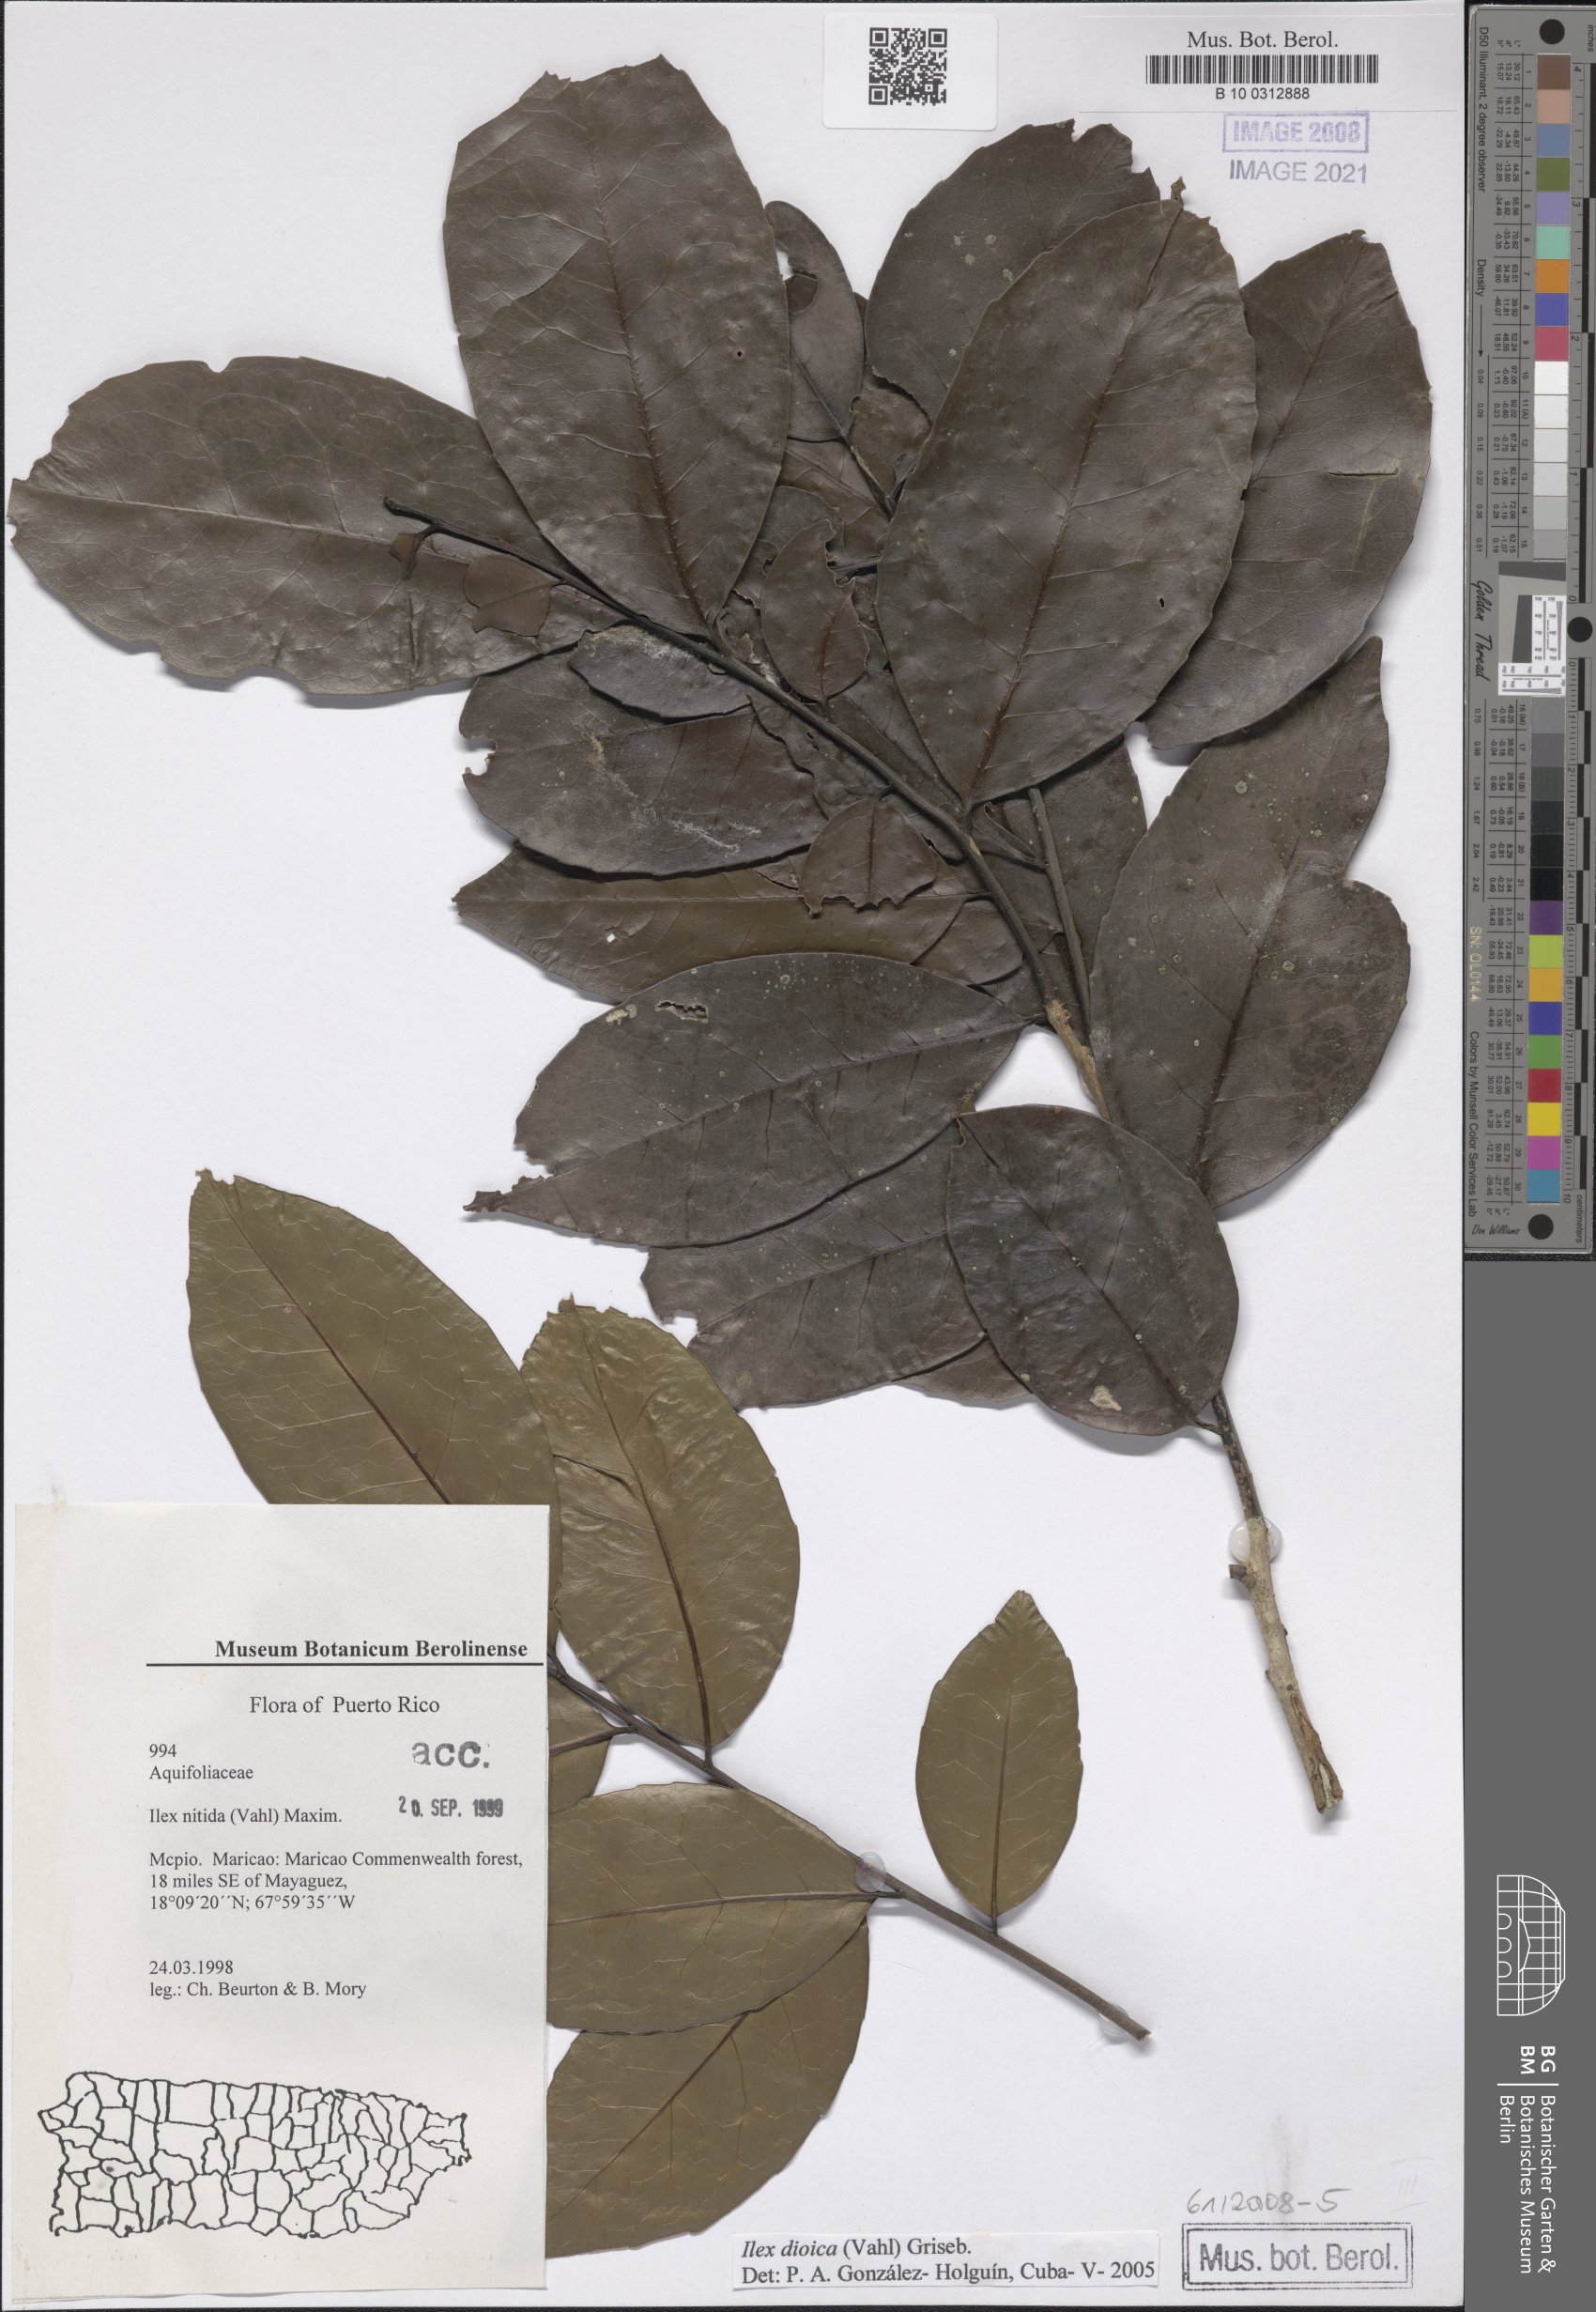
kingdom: Plantae
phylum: Tracheophyta
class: Magnoliopsida
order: Aquifoliales
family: Aquifoliaceae
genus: Ilex
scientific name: Ilex dioica
